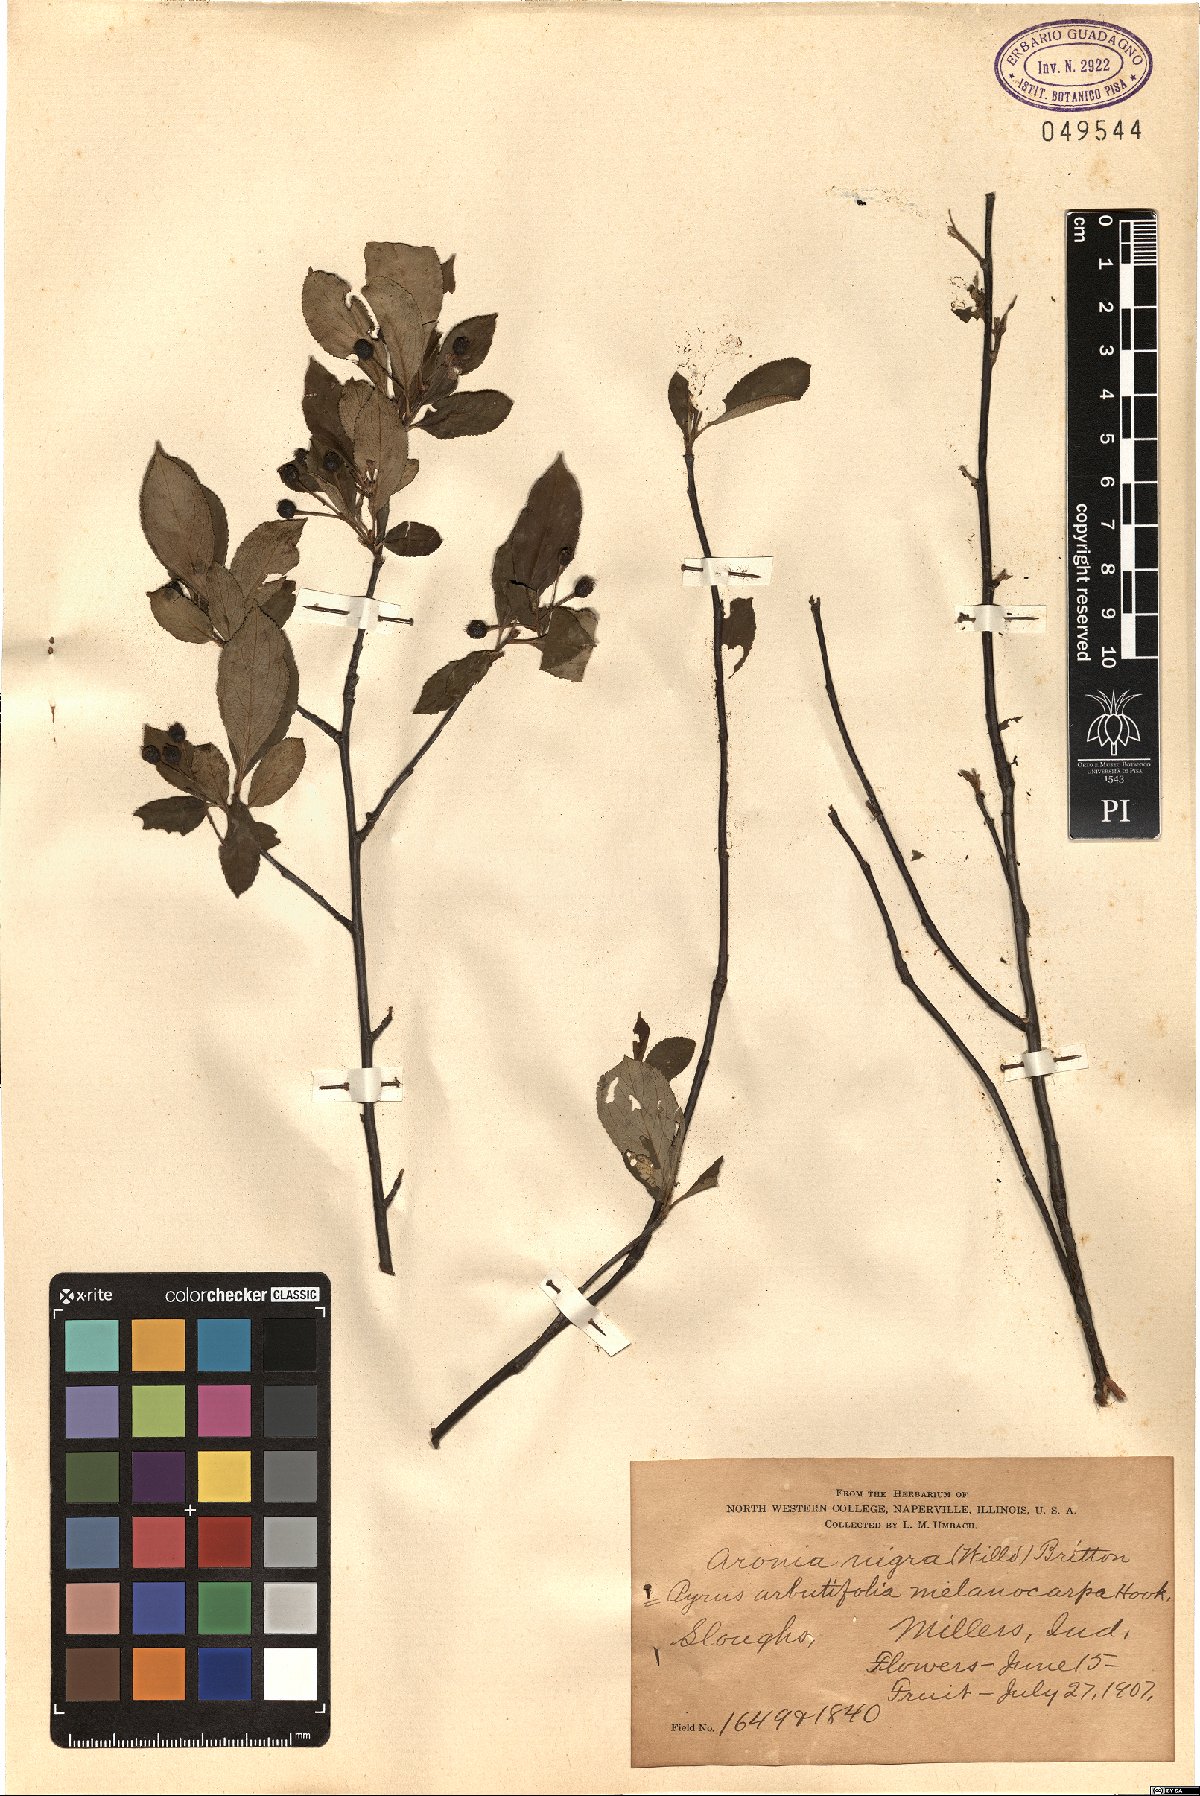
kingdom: Plantae
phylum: Tracheophyta
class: Magnoliopsida
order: Rosales
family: Rosaceae
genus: Aronia
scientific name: Aronia melanocarpa
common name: Black chokeberry
